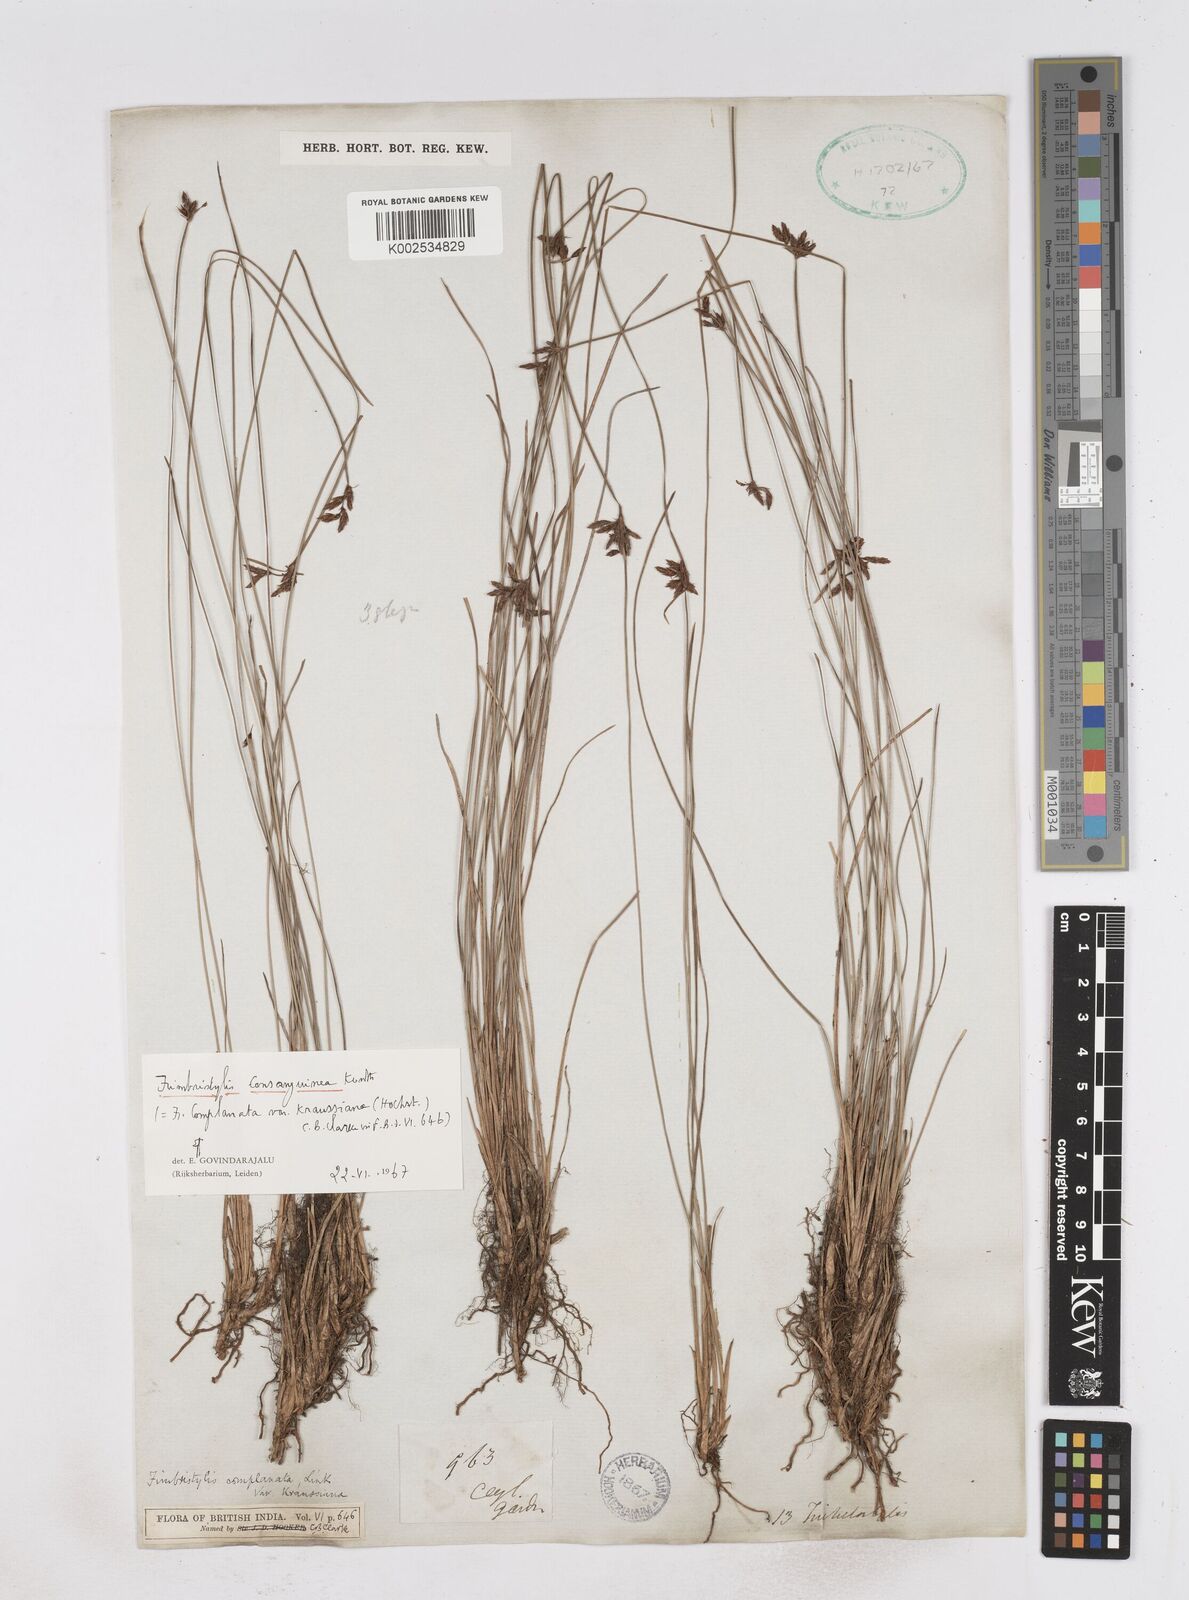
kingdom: Plantae
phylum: Tracheophyta
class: Liliopsida
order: Poales
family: Cyperaceae
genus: Fimbristylis
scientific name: Fimbristylis complanata
